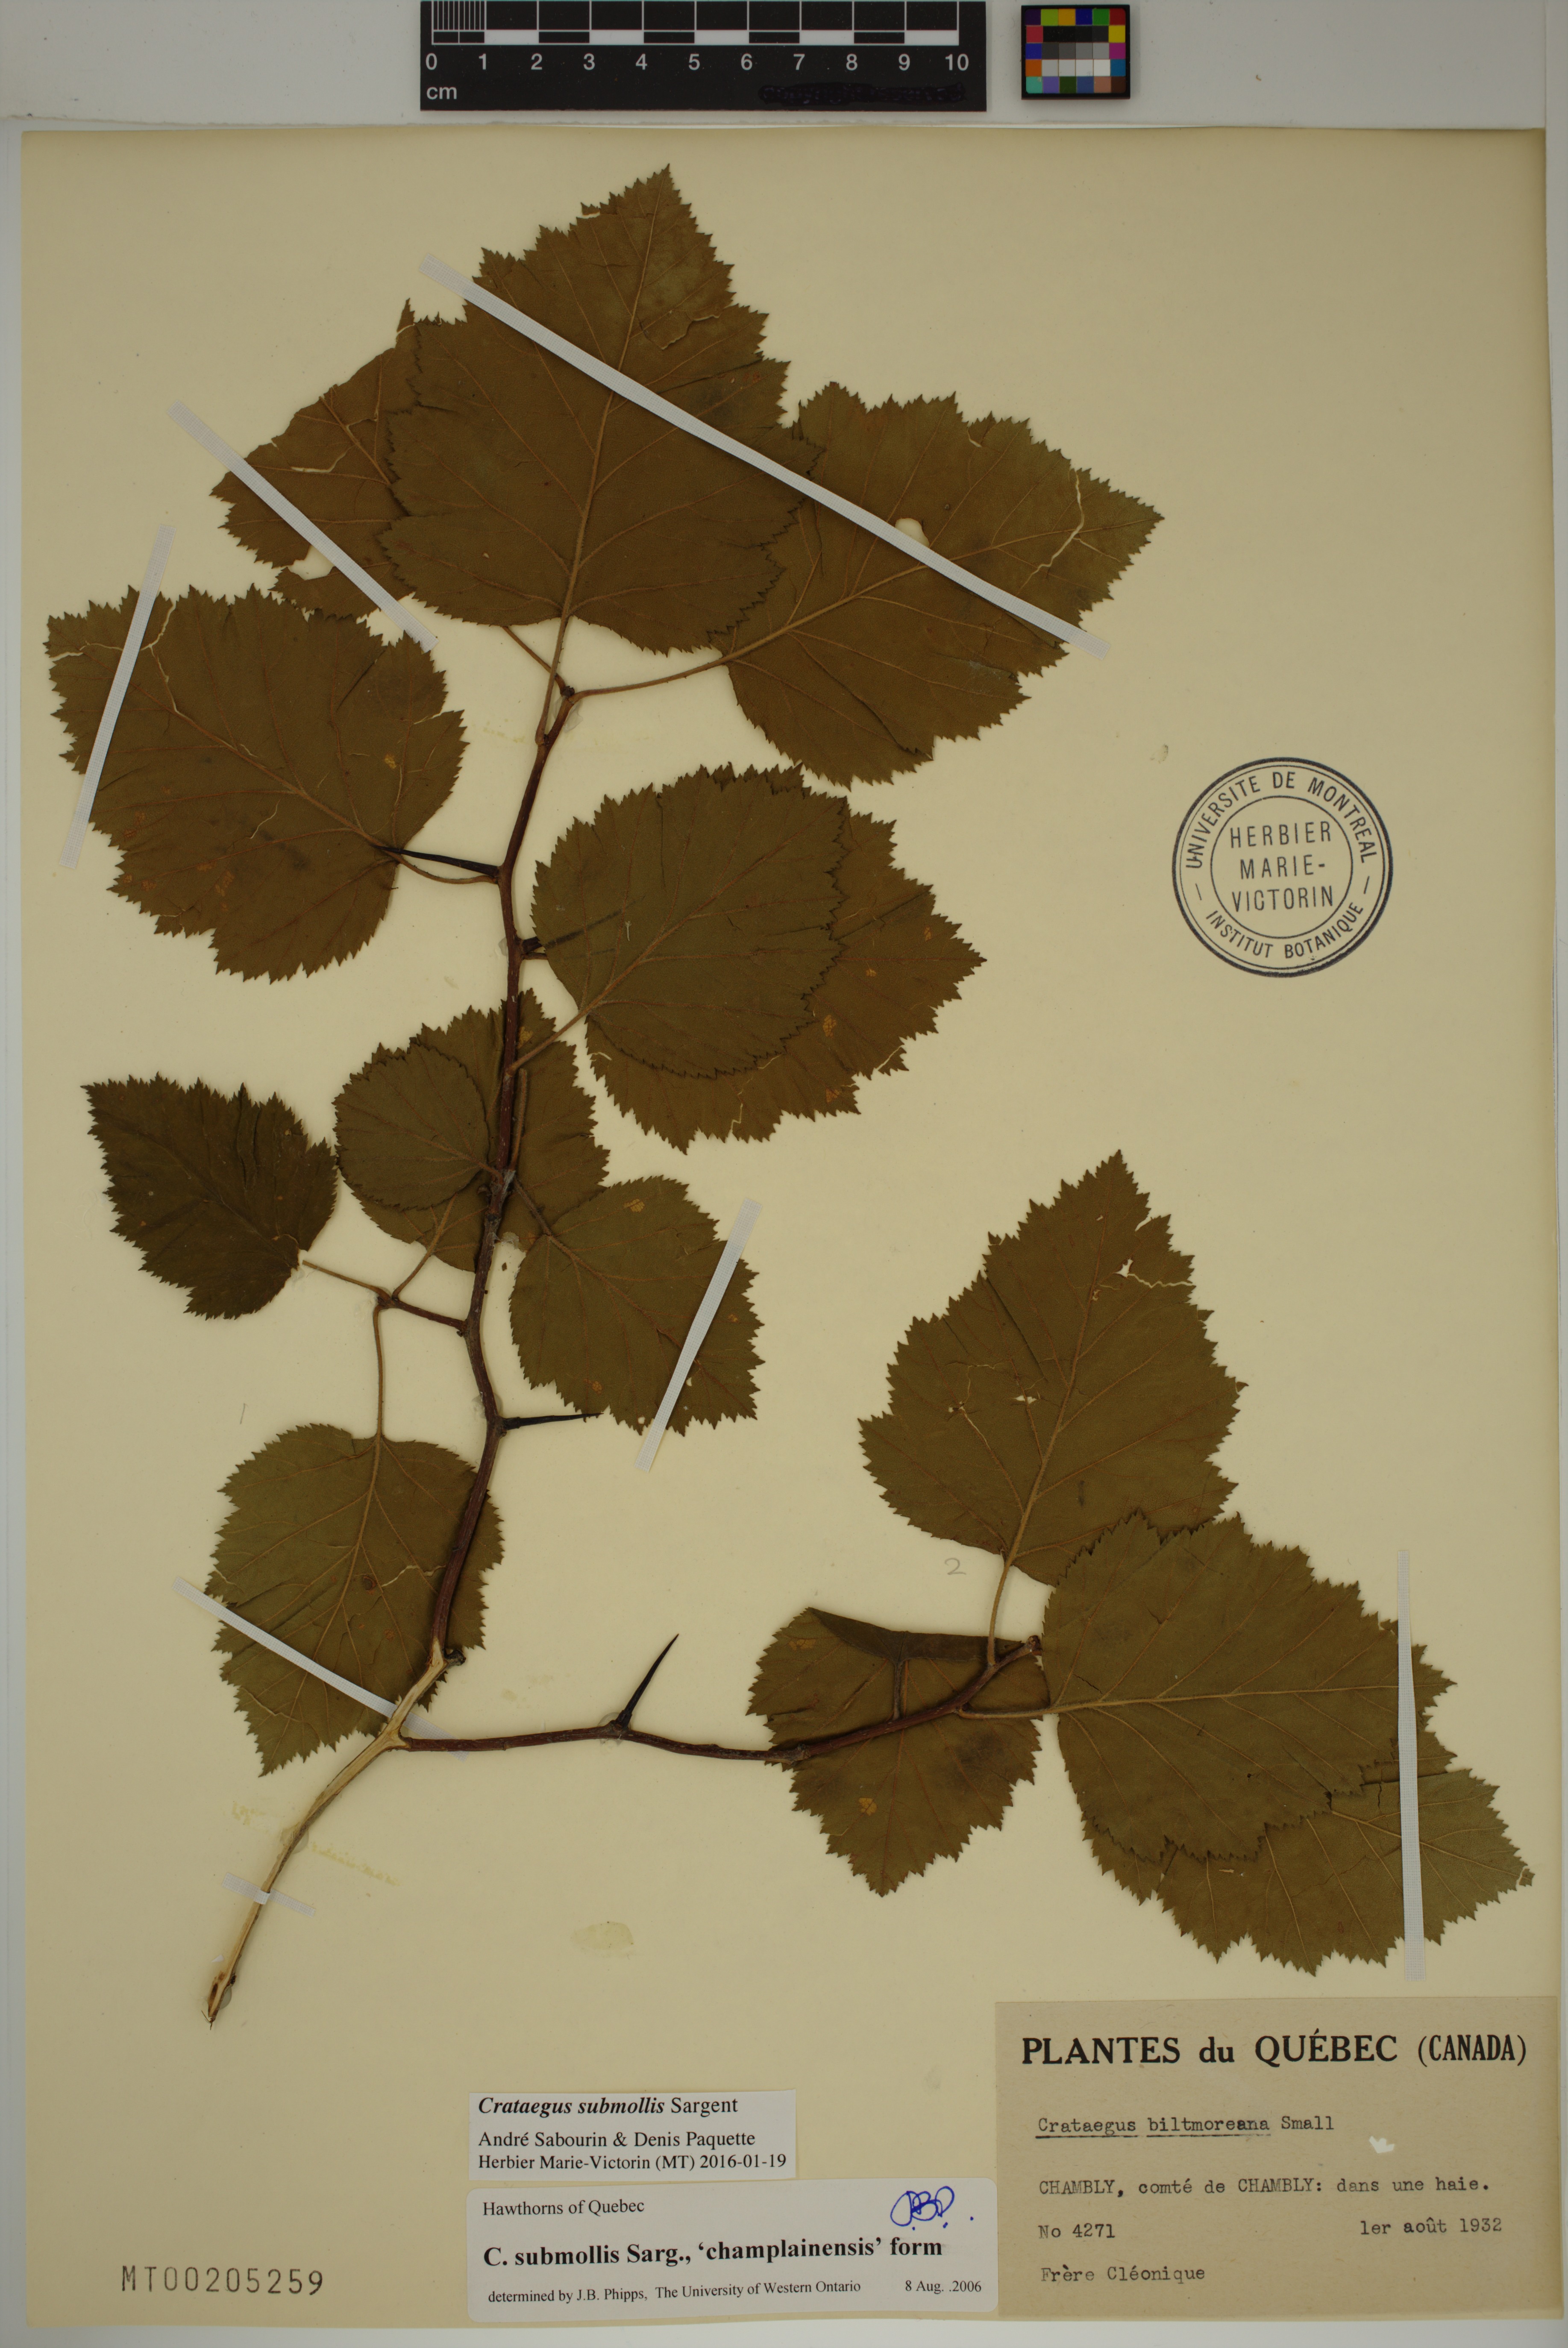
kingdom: Plantae
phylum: Tracheophyta
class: Magnoliopsida
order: Rosales
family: Rosaceae
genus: Crataegus
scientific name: Crataegus submollis
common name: Hairy cockspurthorn
